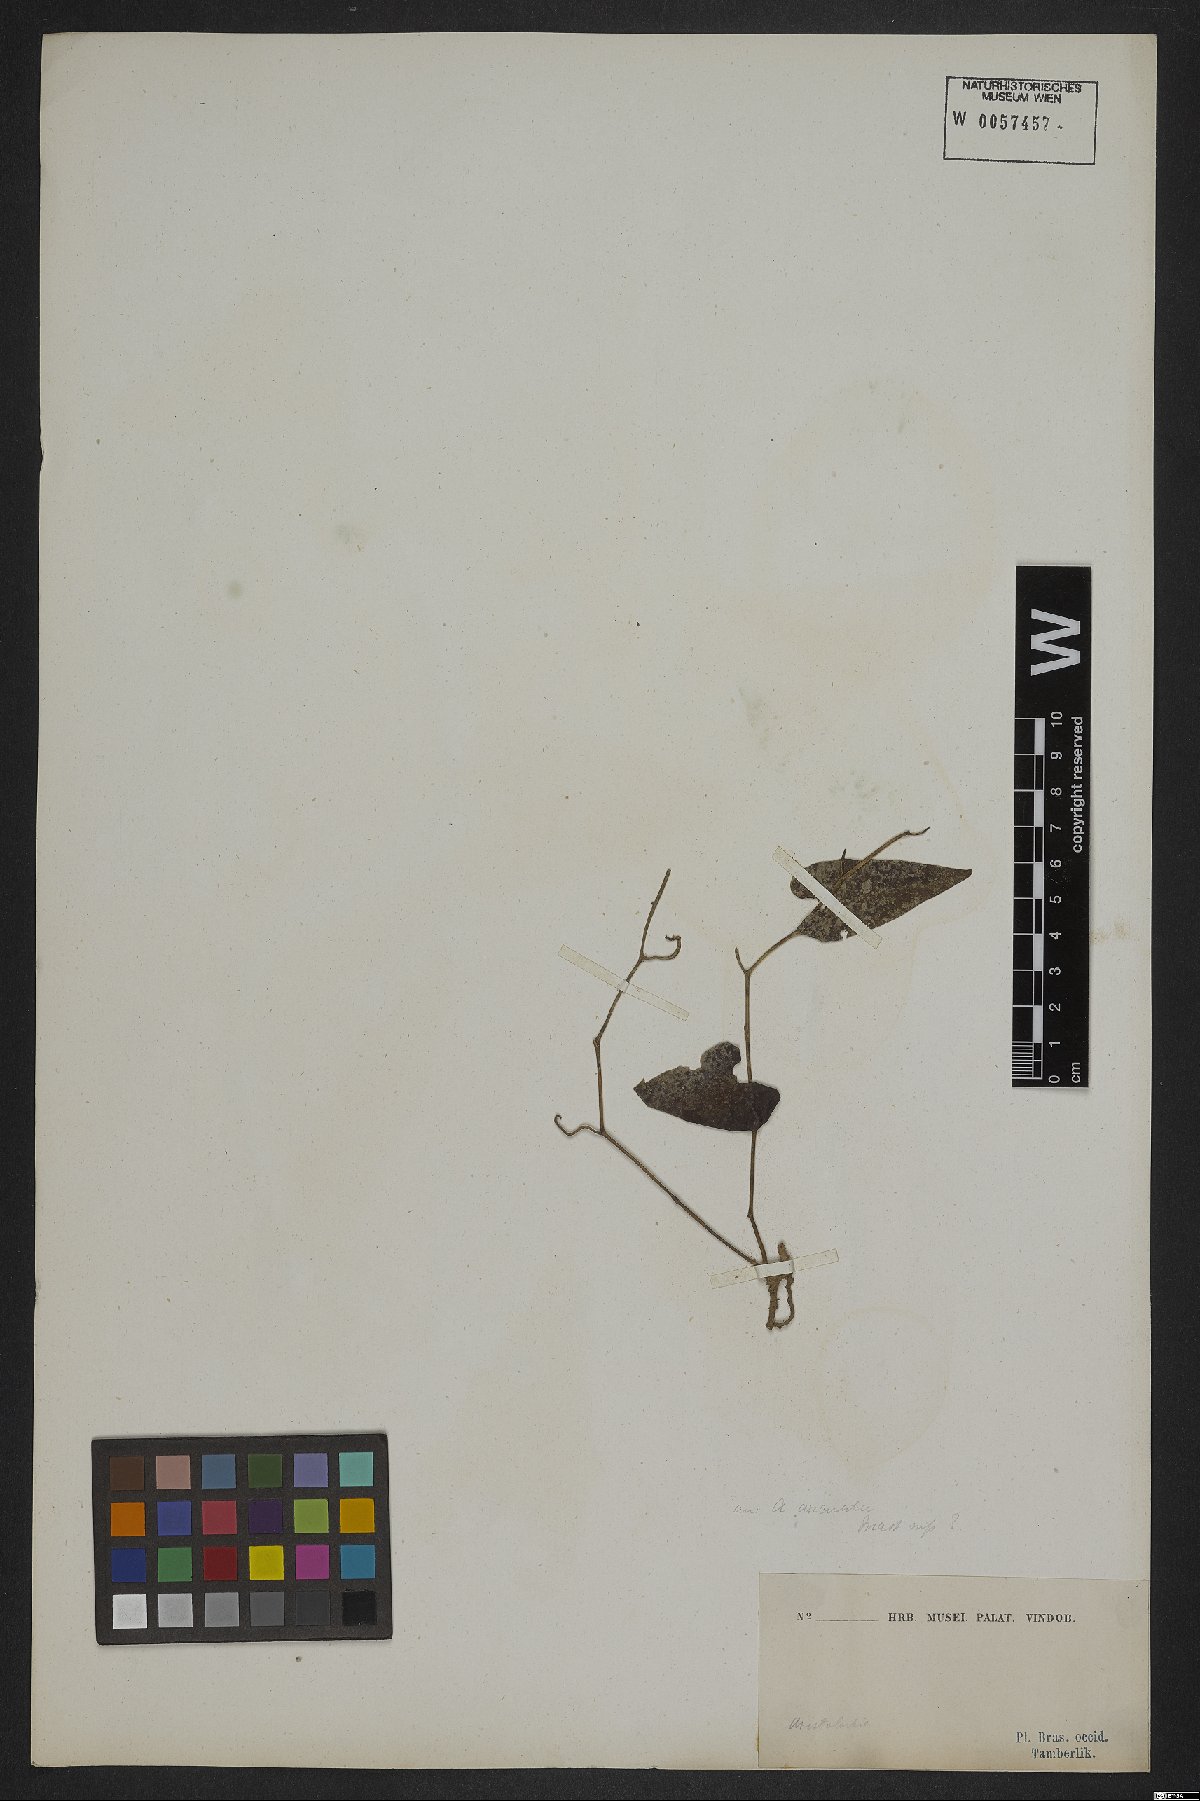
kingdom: Plantae
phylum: Tracheophyta
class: Magnoliopsida
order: Piperales
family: Aristolochiaceae
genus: Aristolochia
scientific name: Aristolochia arcuata
